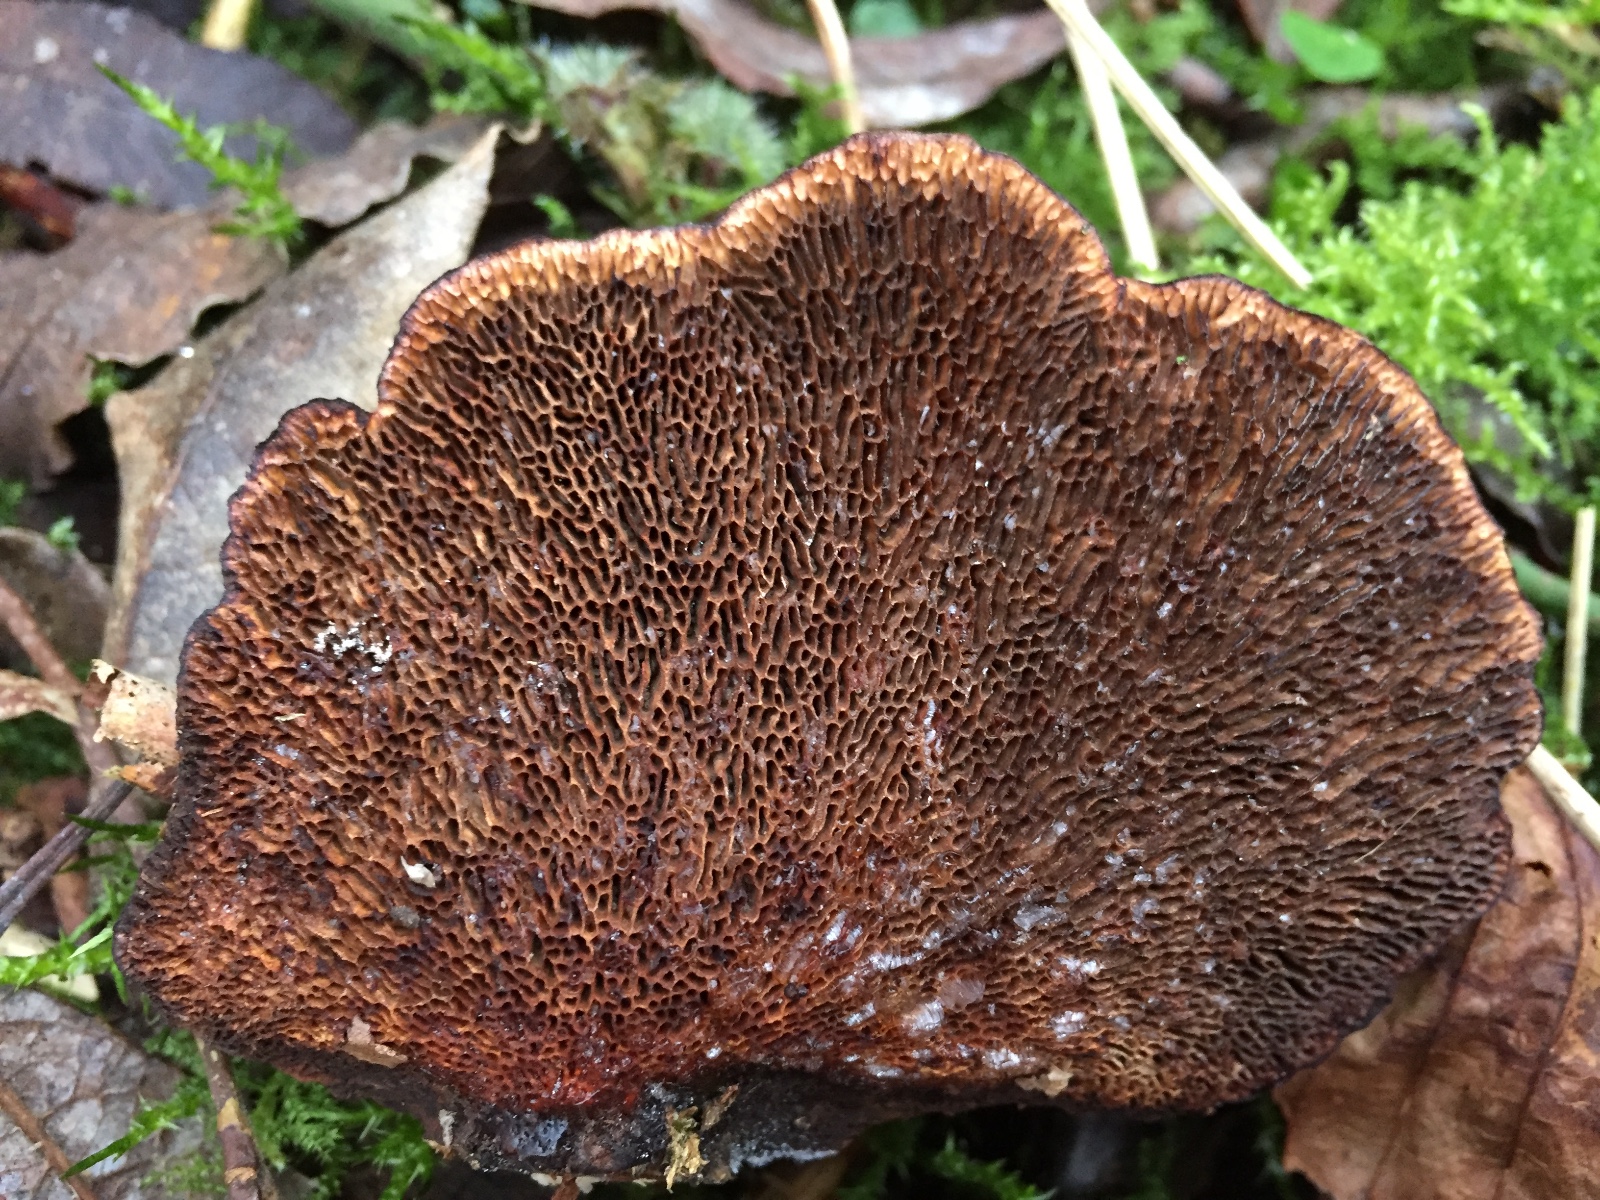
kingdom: Fungi
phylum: Basidiomycota
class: Agaricomycetes
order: Polyporales
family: Polyporaceae
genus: Daedaleopsis
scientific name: Daedaleopsis confragosa
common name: rødmende læderporesvamp
